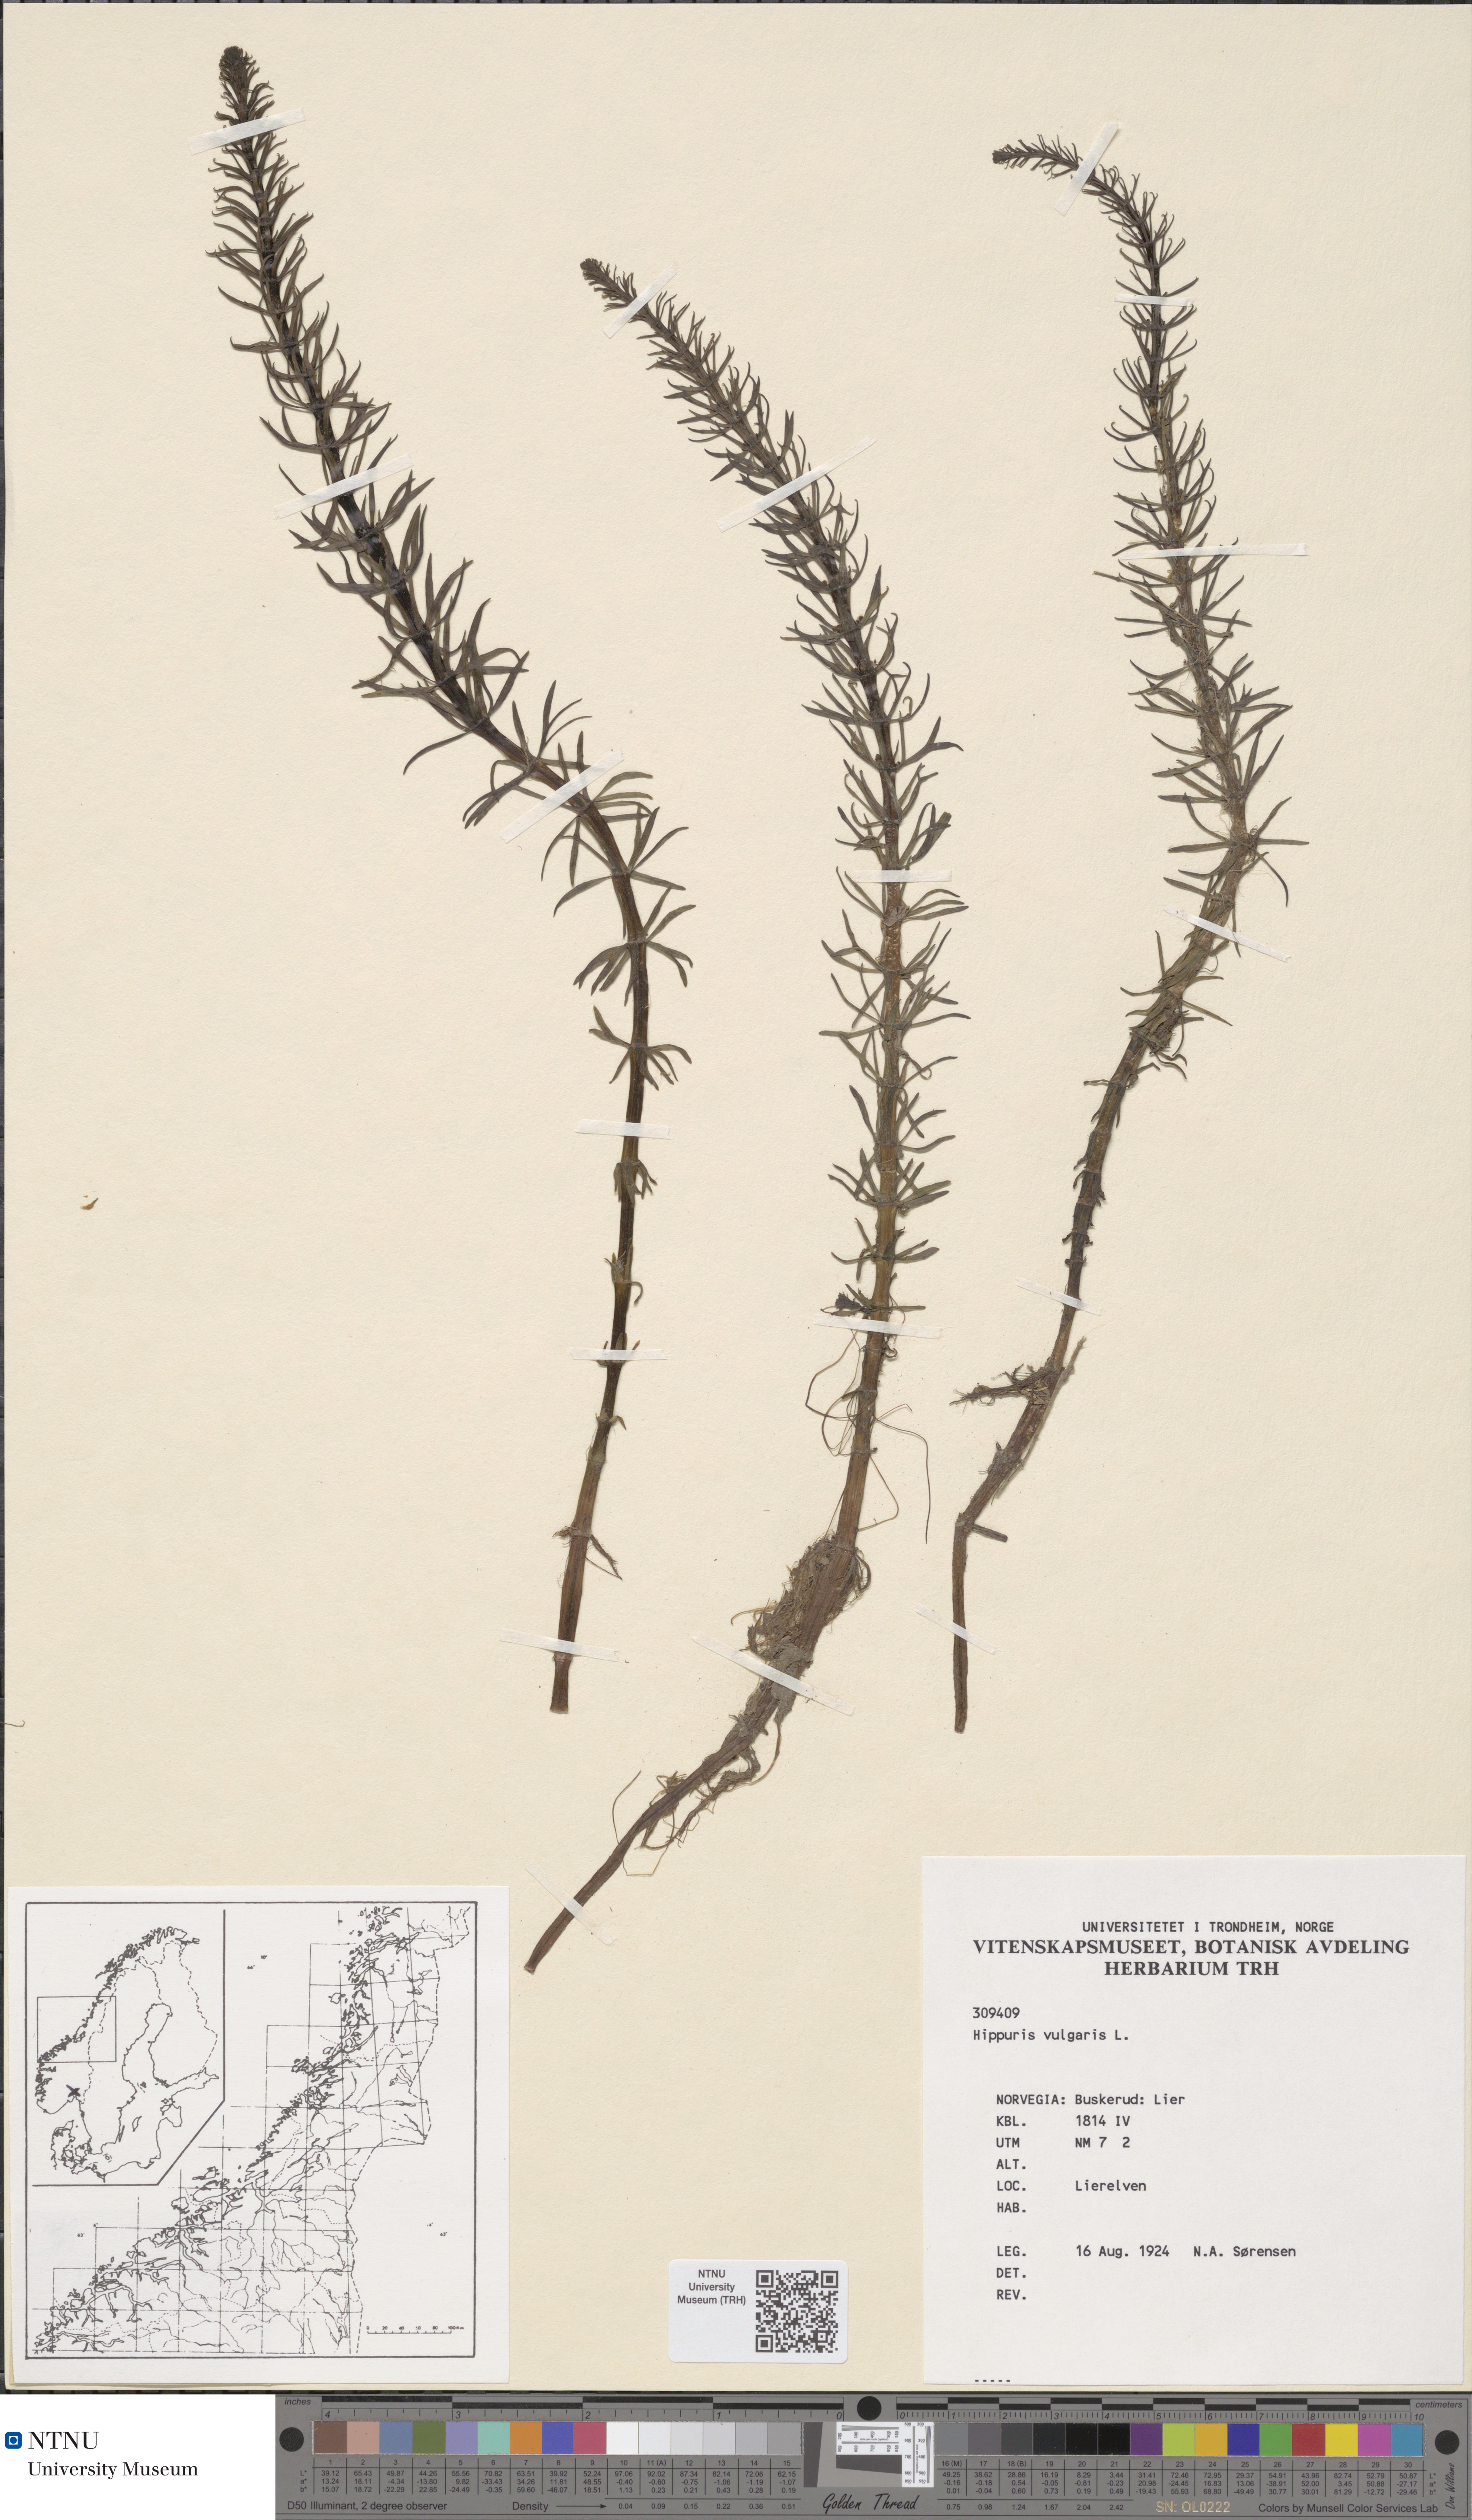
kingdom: Plantae
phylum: Tracheophyta
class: Magnoliopsida
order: Lamiales
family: Plantaginaceae
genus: Hippuris
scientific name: Hippuris vulgaris
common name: Mare's-tail
